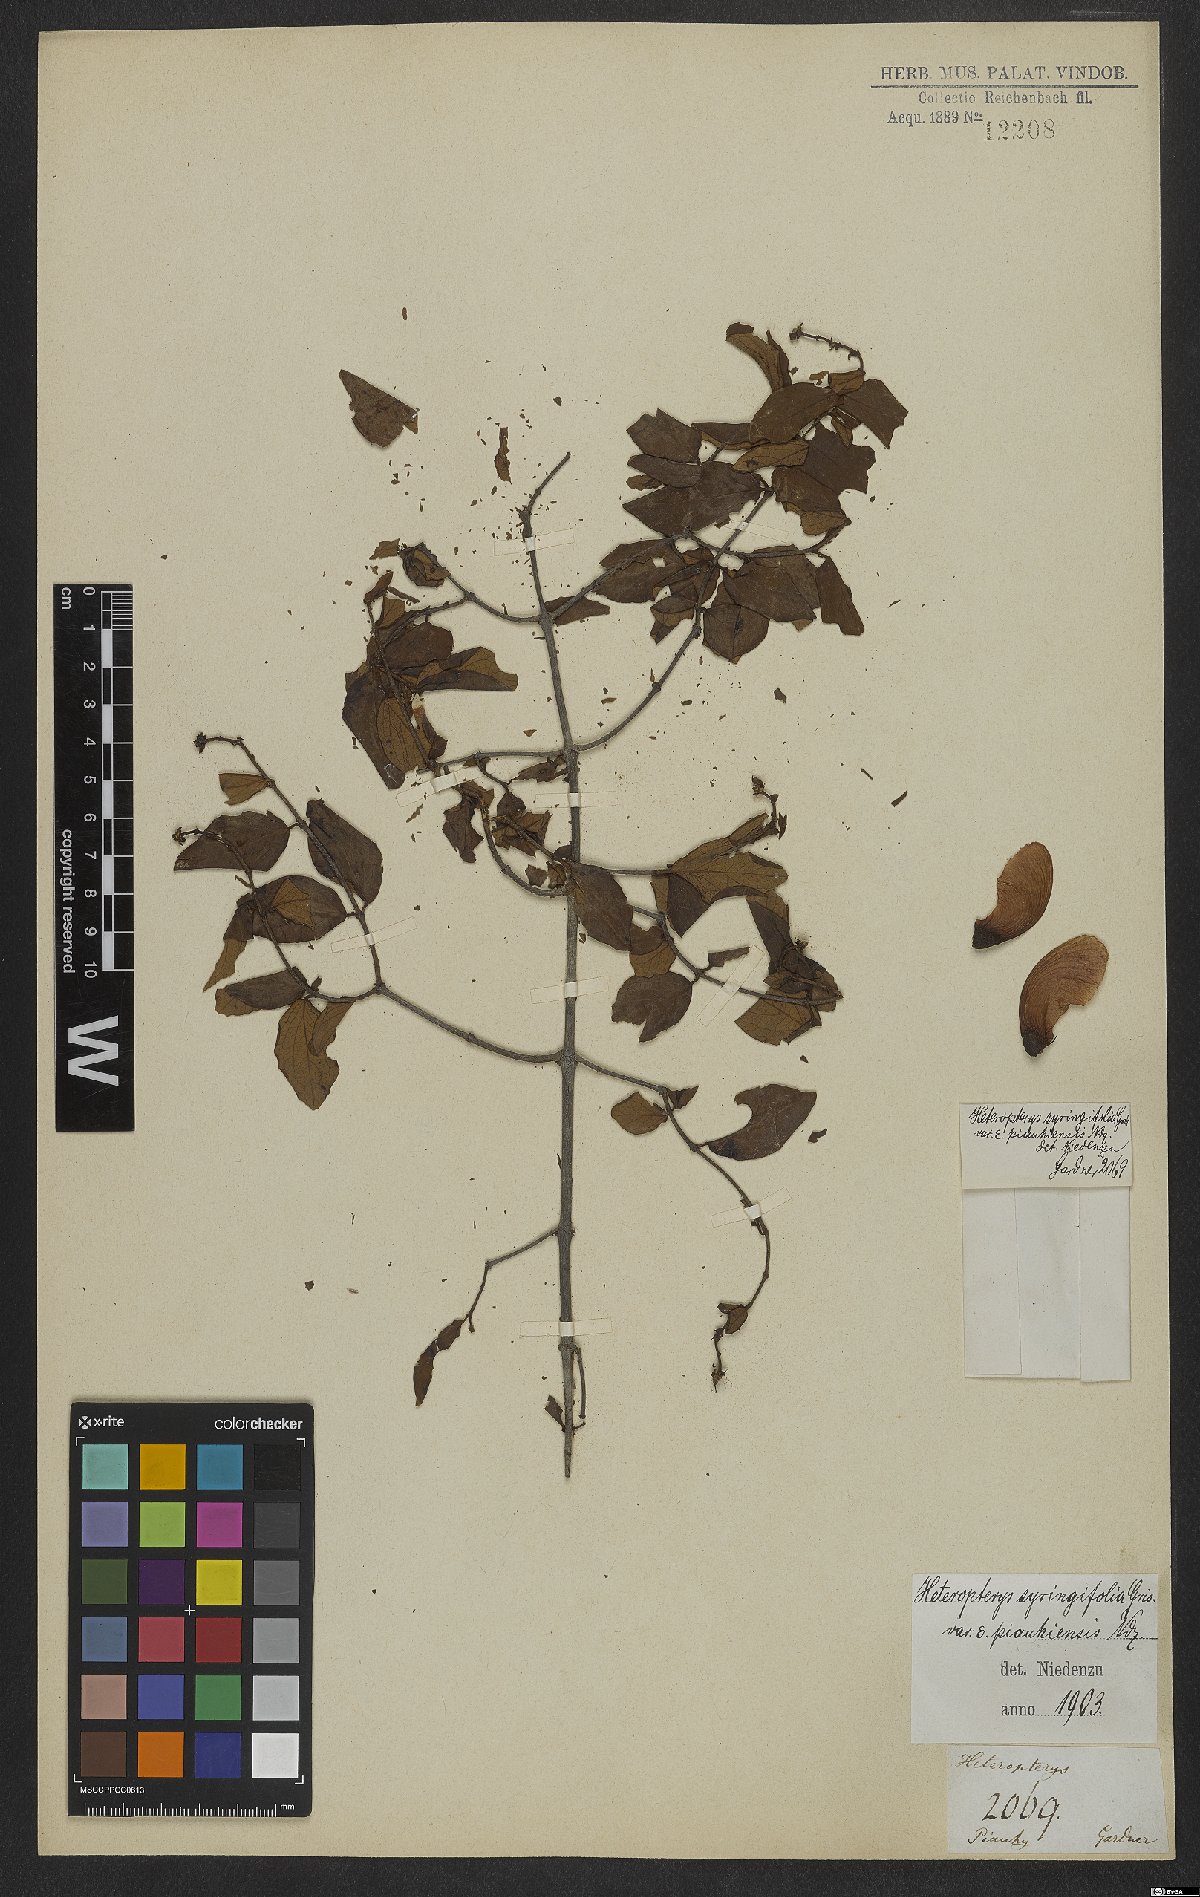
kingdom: Plantae
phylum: Tracheophyta
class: Magnoliopsida
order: Malpighiales
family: Malpighiaceae
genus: Heteropterys
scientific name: Heteropterys syringifolia
